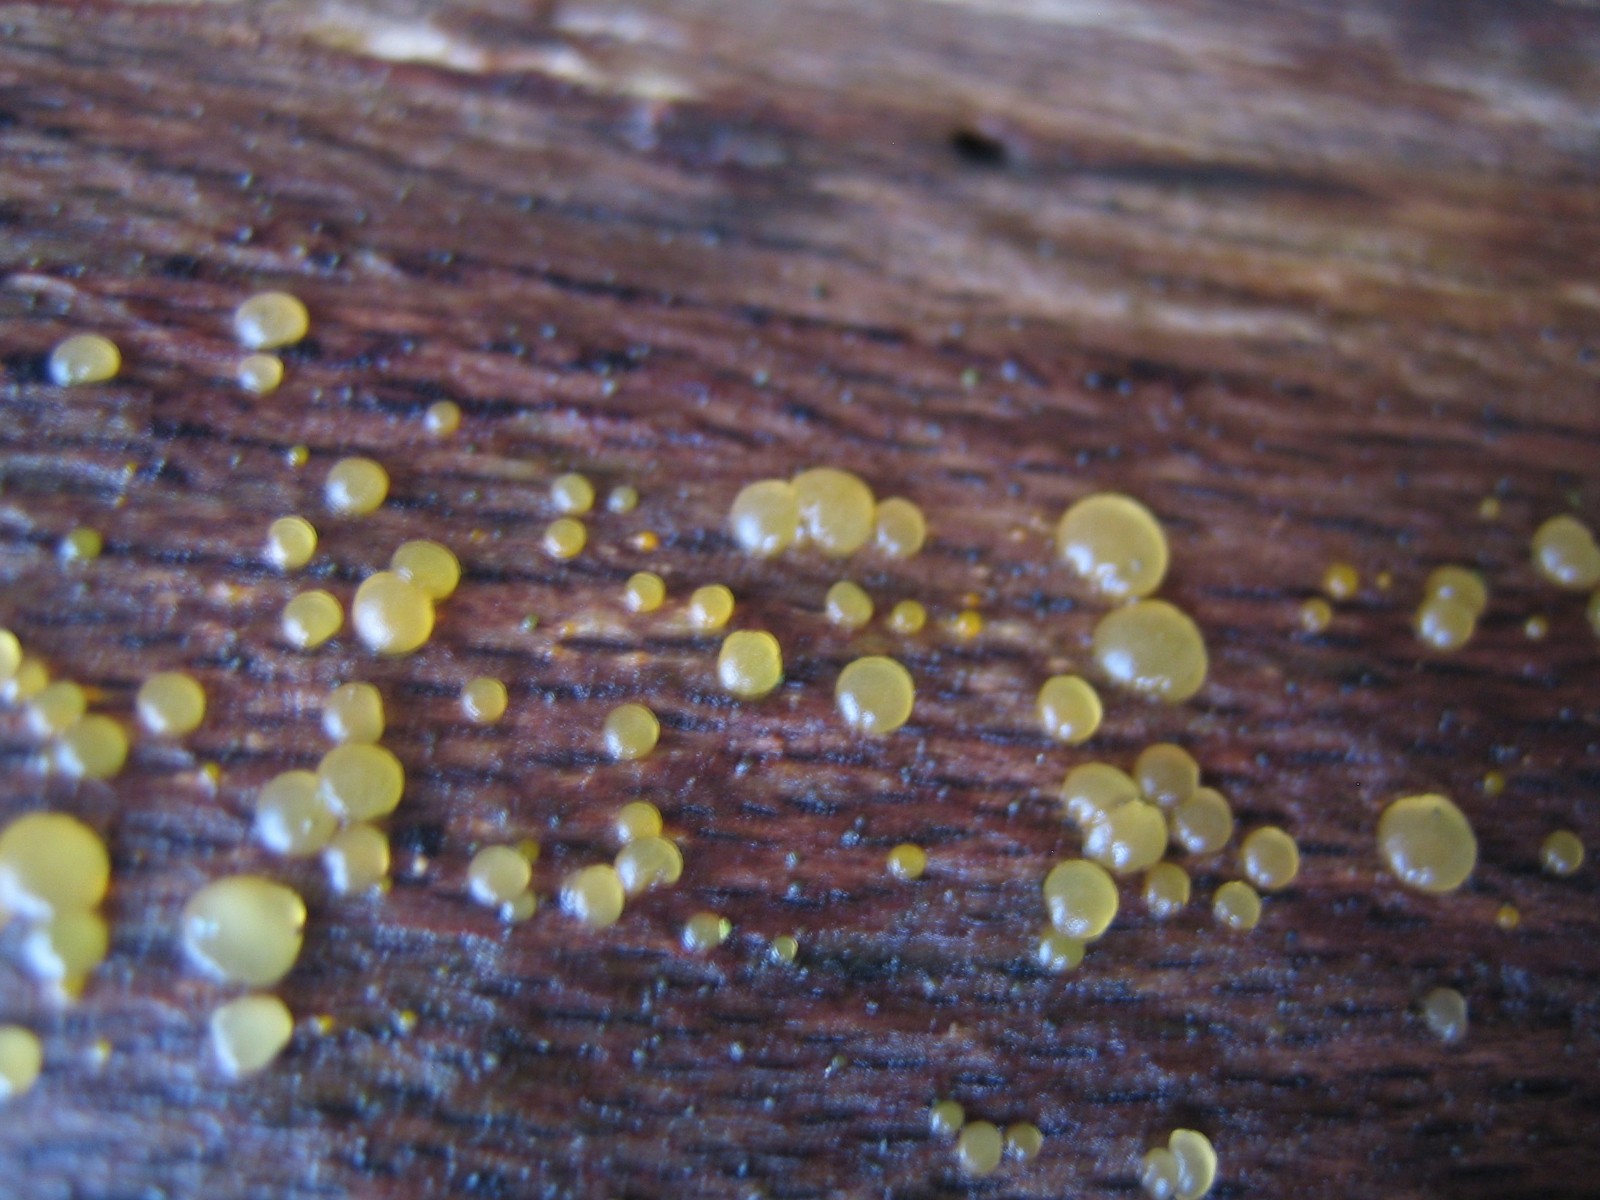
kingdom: Fungi
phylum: Basidiomycota
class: Dacrymycetes
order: Dacrymycetales
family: Dacrymycetaceae
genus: Dacrymyces
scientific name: Dacrymyces
